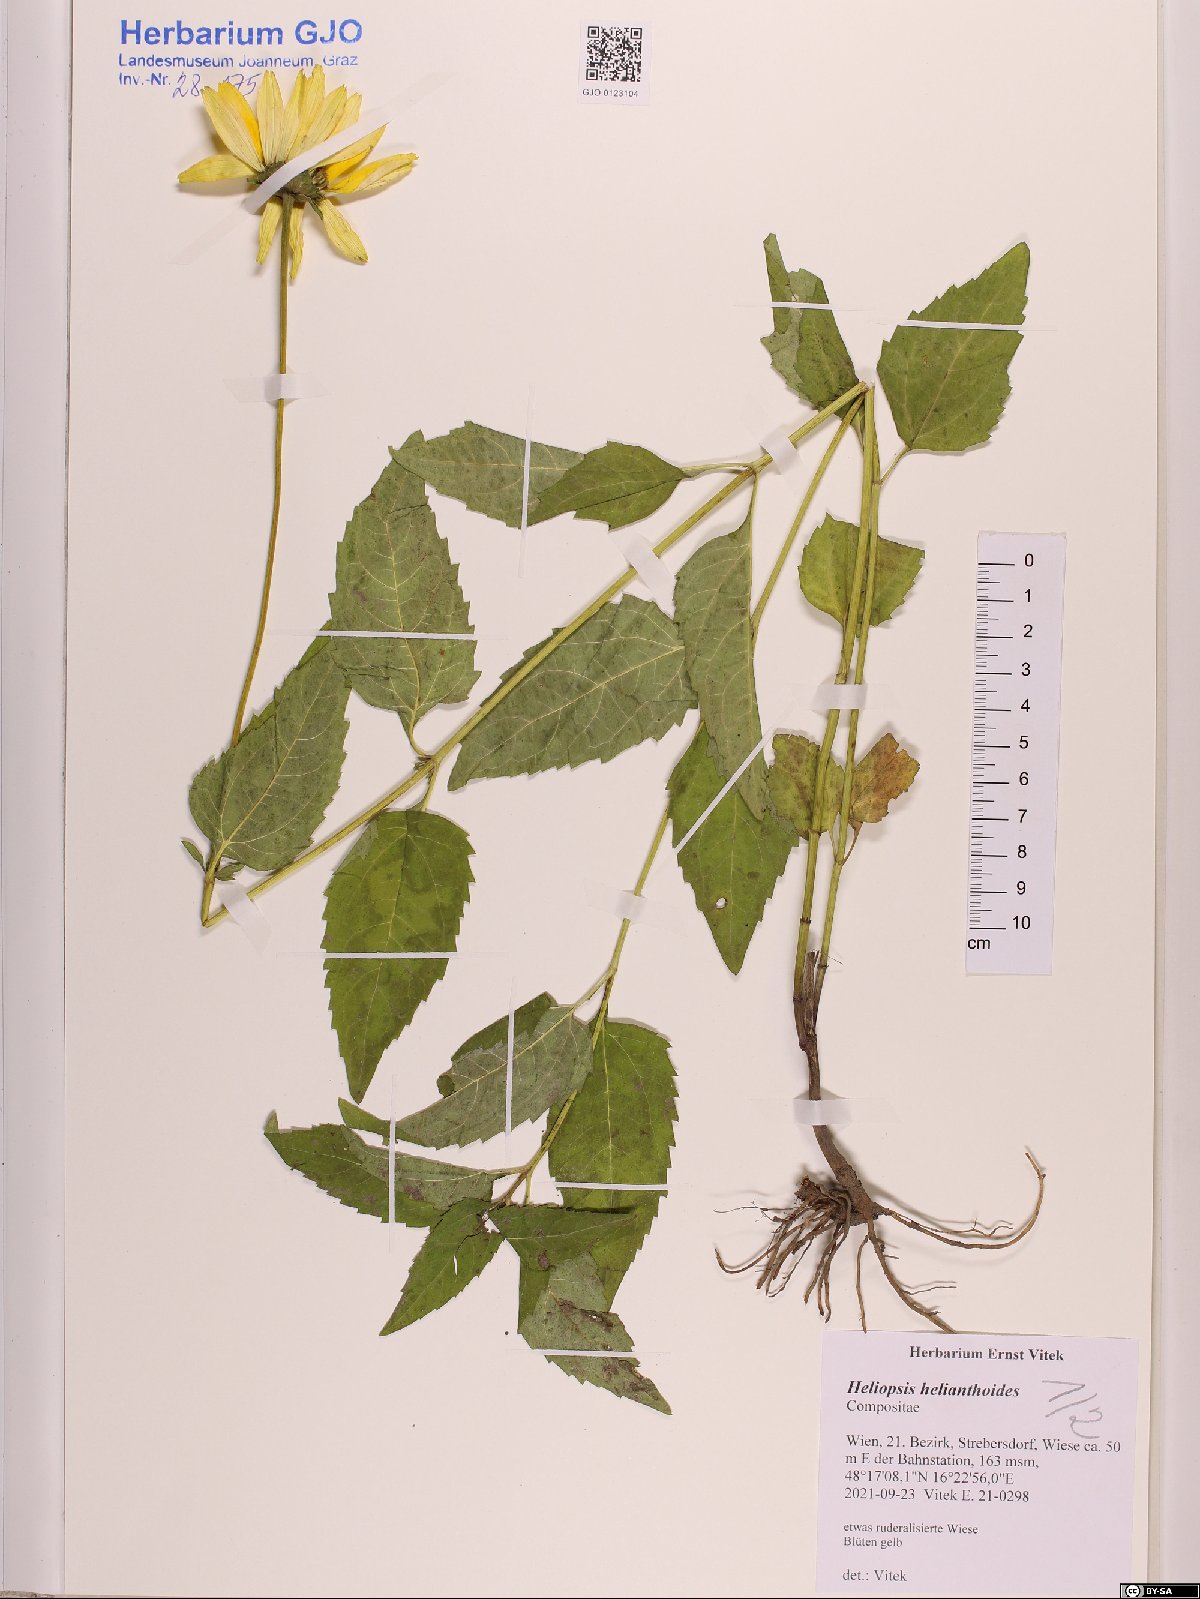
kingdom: Plantae
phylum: Tracheophyta
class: Magnoliopsida
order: Asterales
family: Asteraceae
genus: Heliopsis
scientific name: Heliopsis helianthoides
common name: False sunflower
